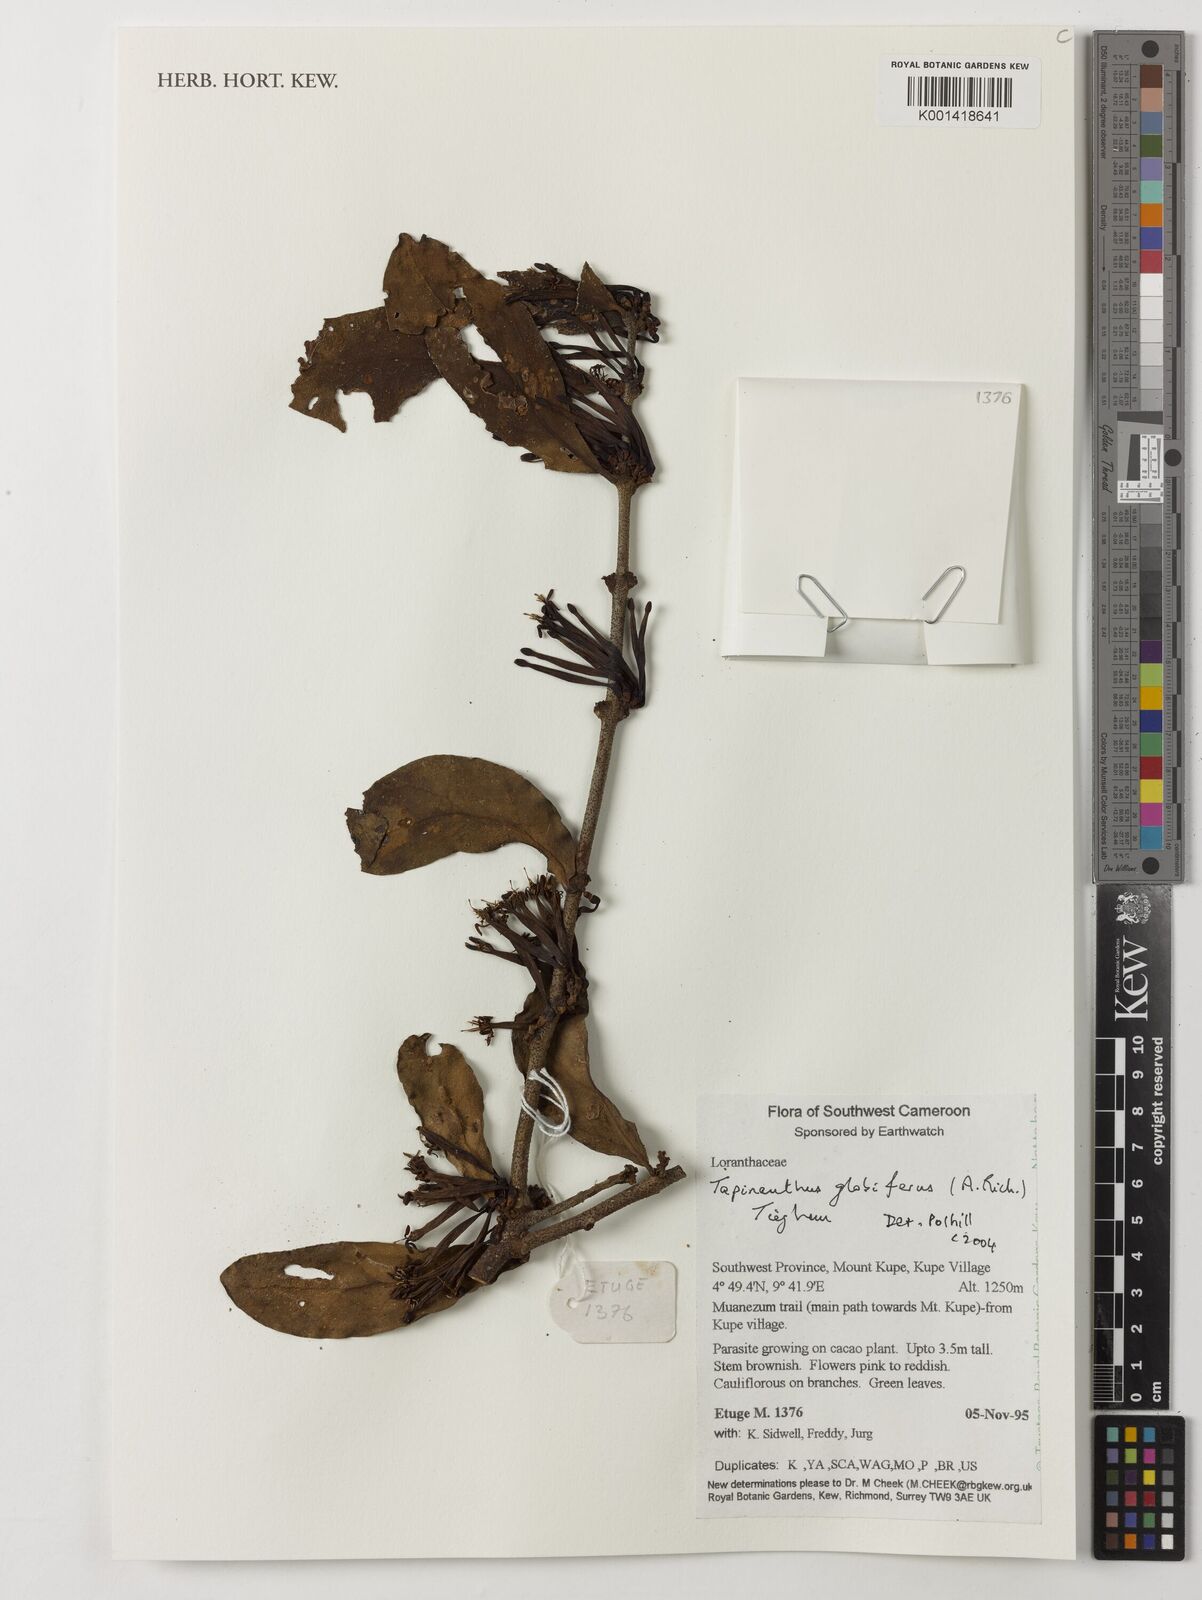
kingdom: Plantae
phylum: Tracheophyta
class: Magnoliopsida
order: Santalales
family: Loranthaceae
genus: Tapinanthus
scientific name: Tapinanthus globifer
